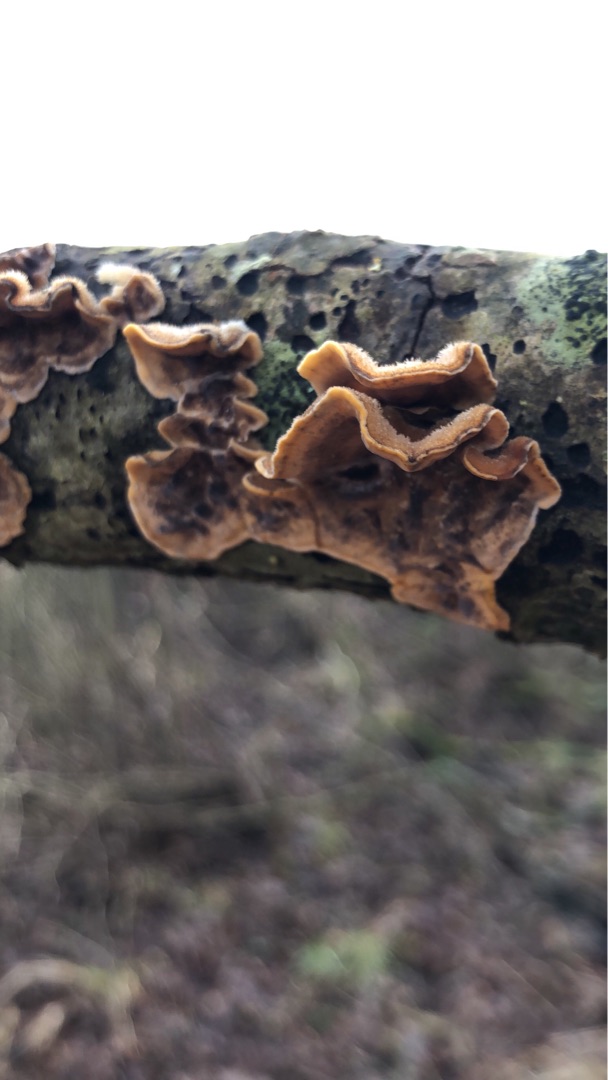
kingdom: Fungi
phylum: Basidiomycota
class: Agaricomycetes
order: Russulales
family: Stereaceae
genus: Stereum
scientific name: Stereum hirsutum
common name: Håret lædersvamp
